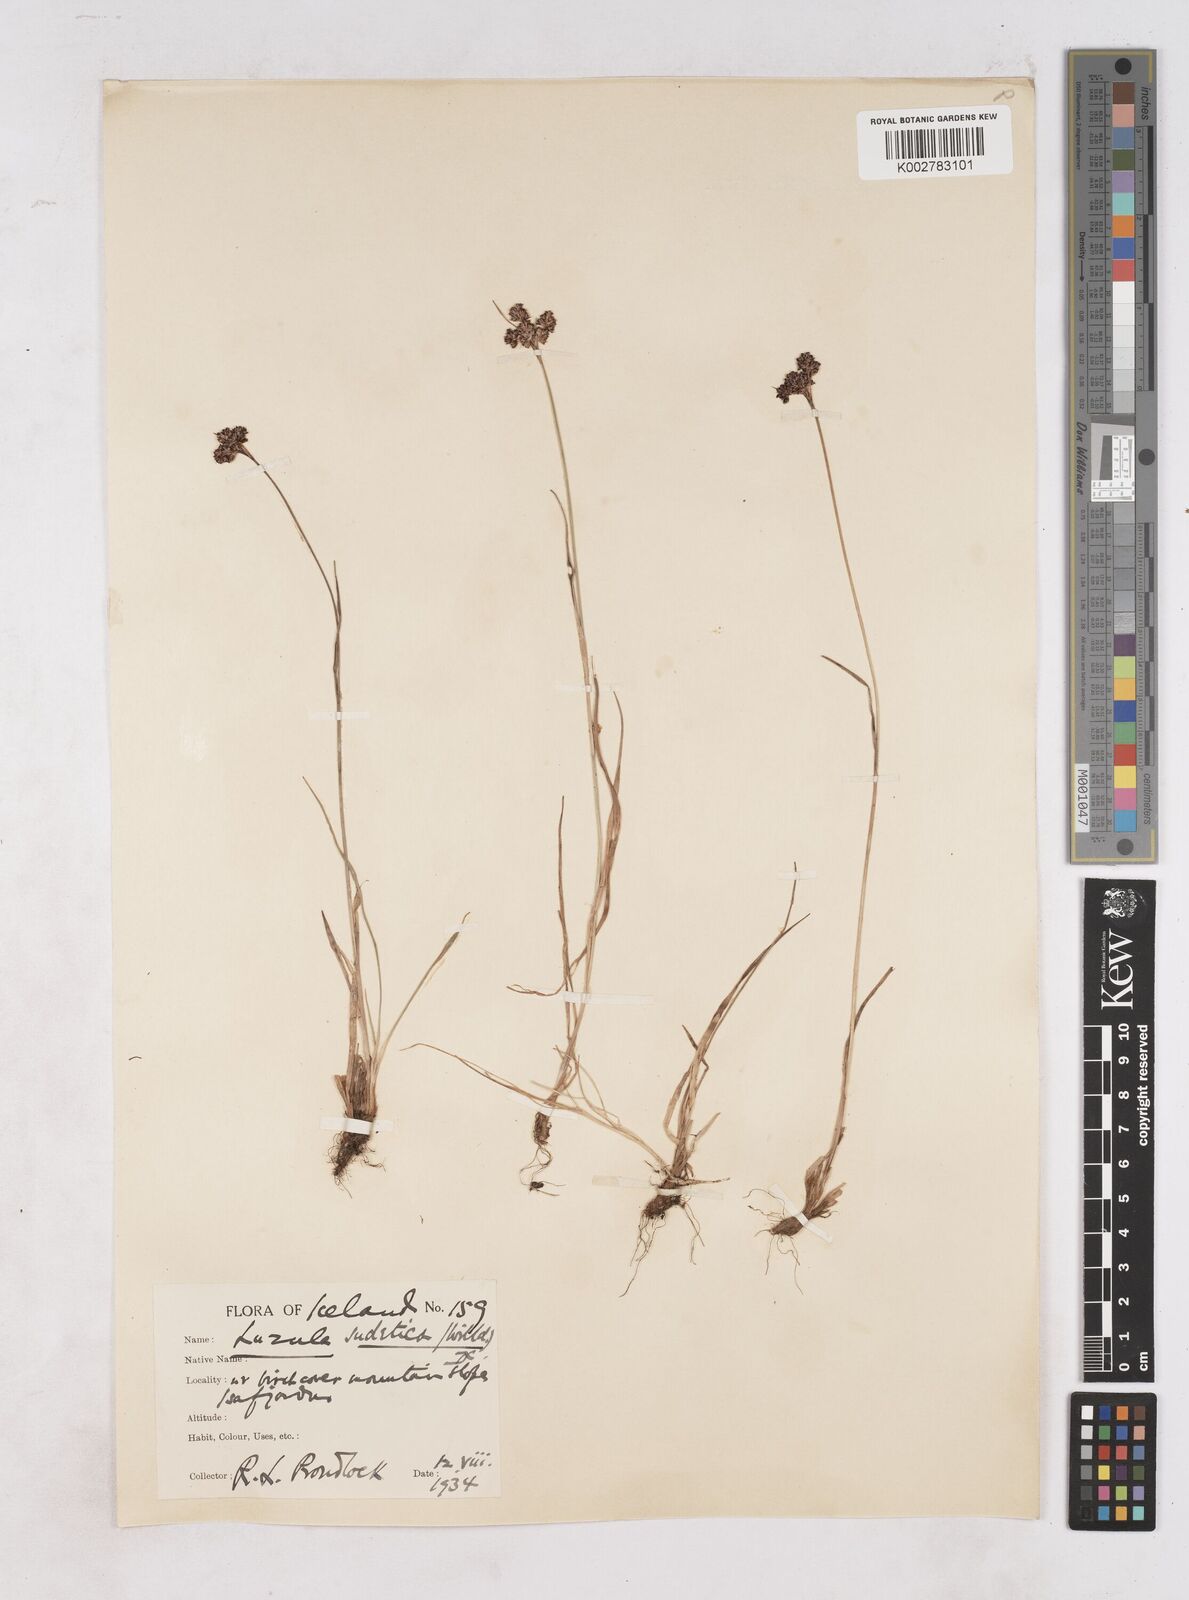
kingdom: Plantae
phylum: Tracheophyta
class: Liliopsida
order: Poales
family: Juncaceae
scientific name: Juncaceae
